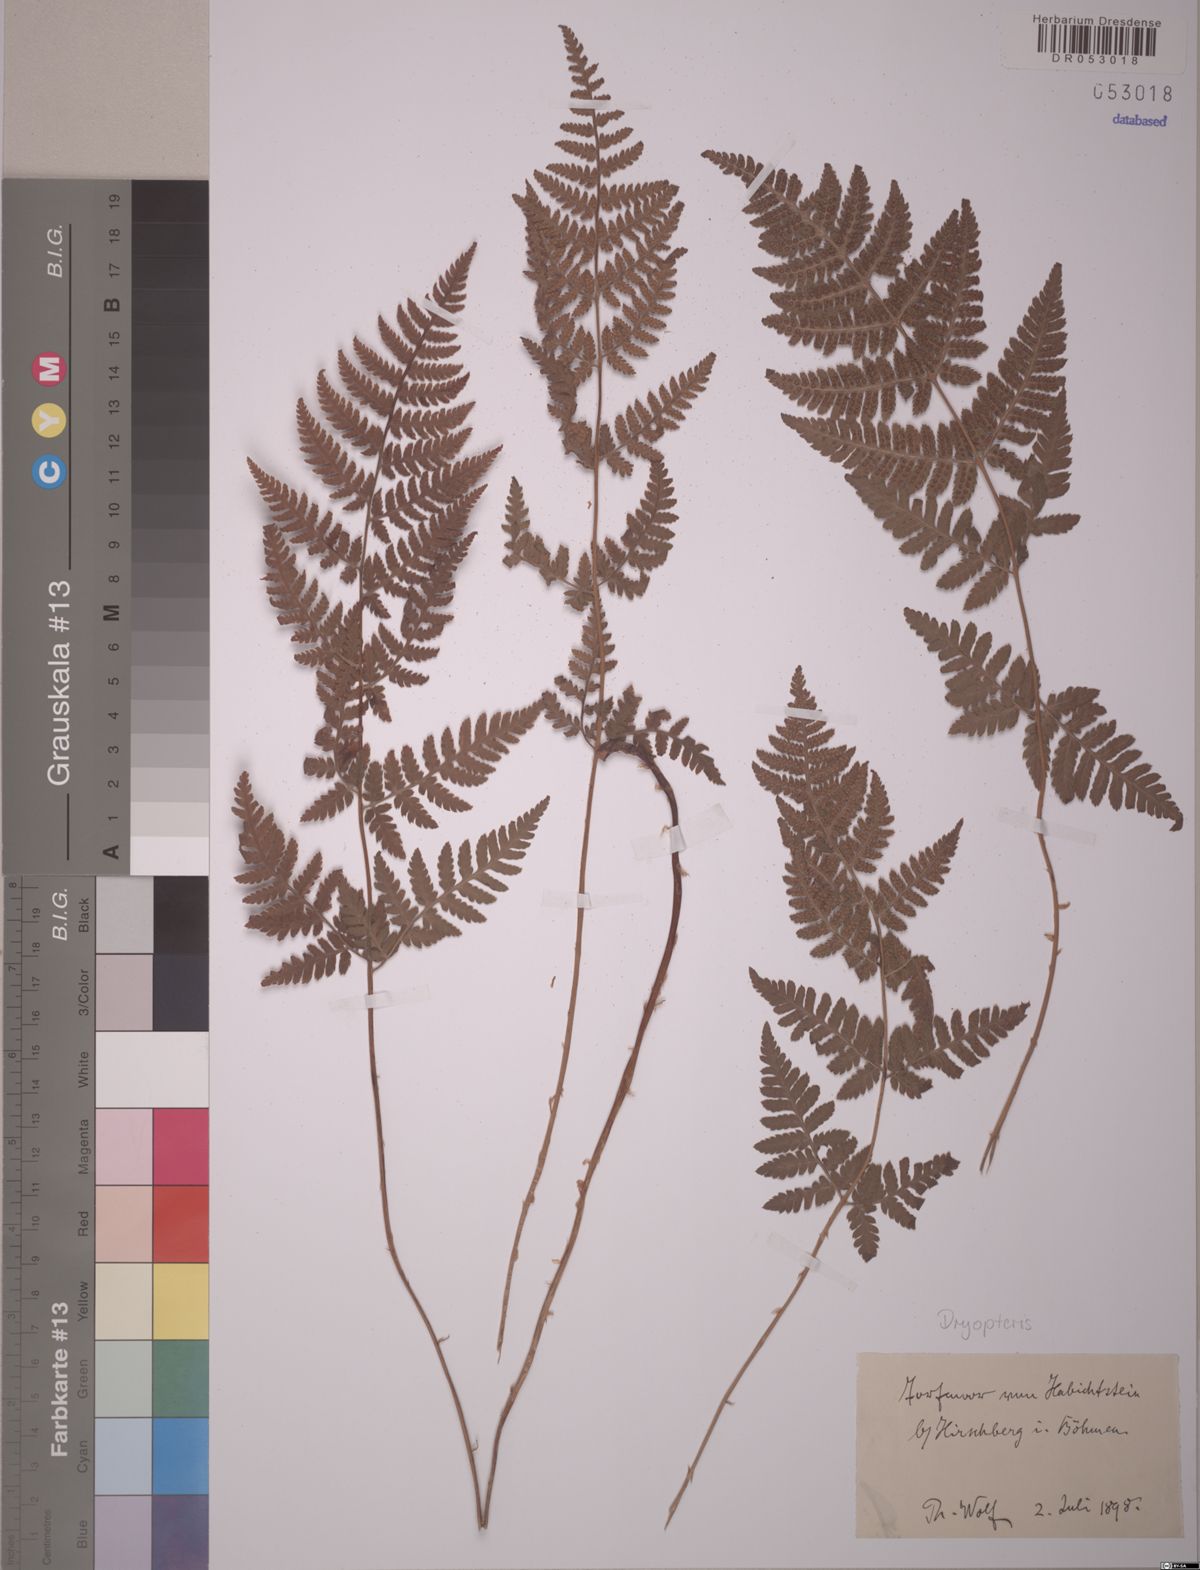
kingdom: Plantae
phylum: Tracheophyta
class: Polypodiopsida
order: Polypodiales
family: Dryopteridaceae
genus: Dryopteris
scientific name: Dryopteris
